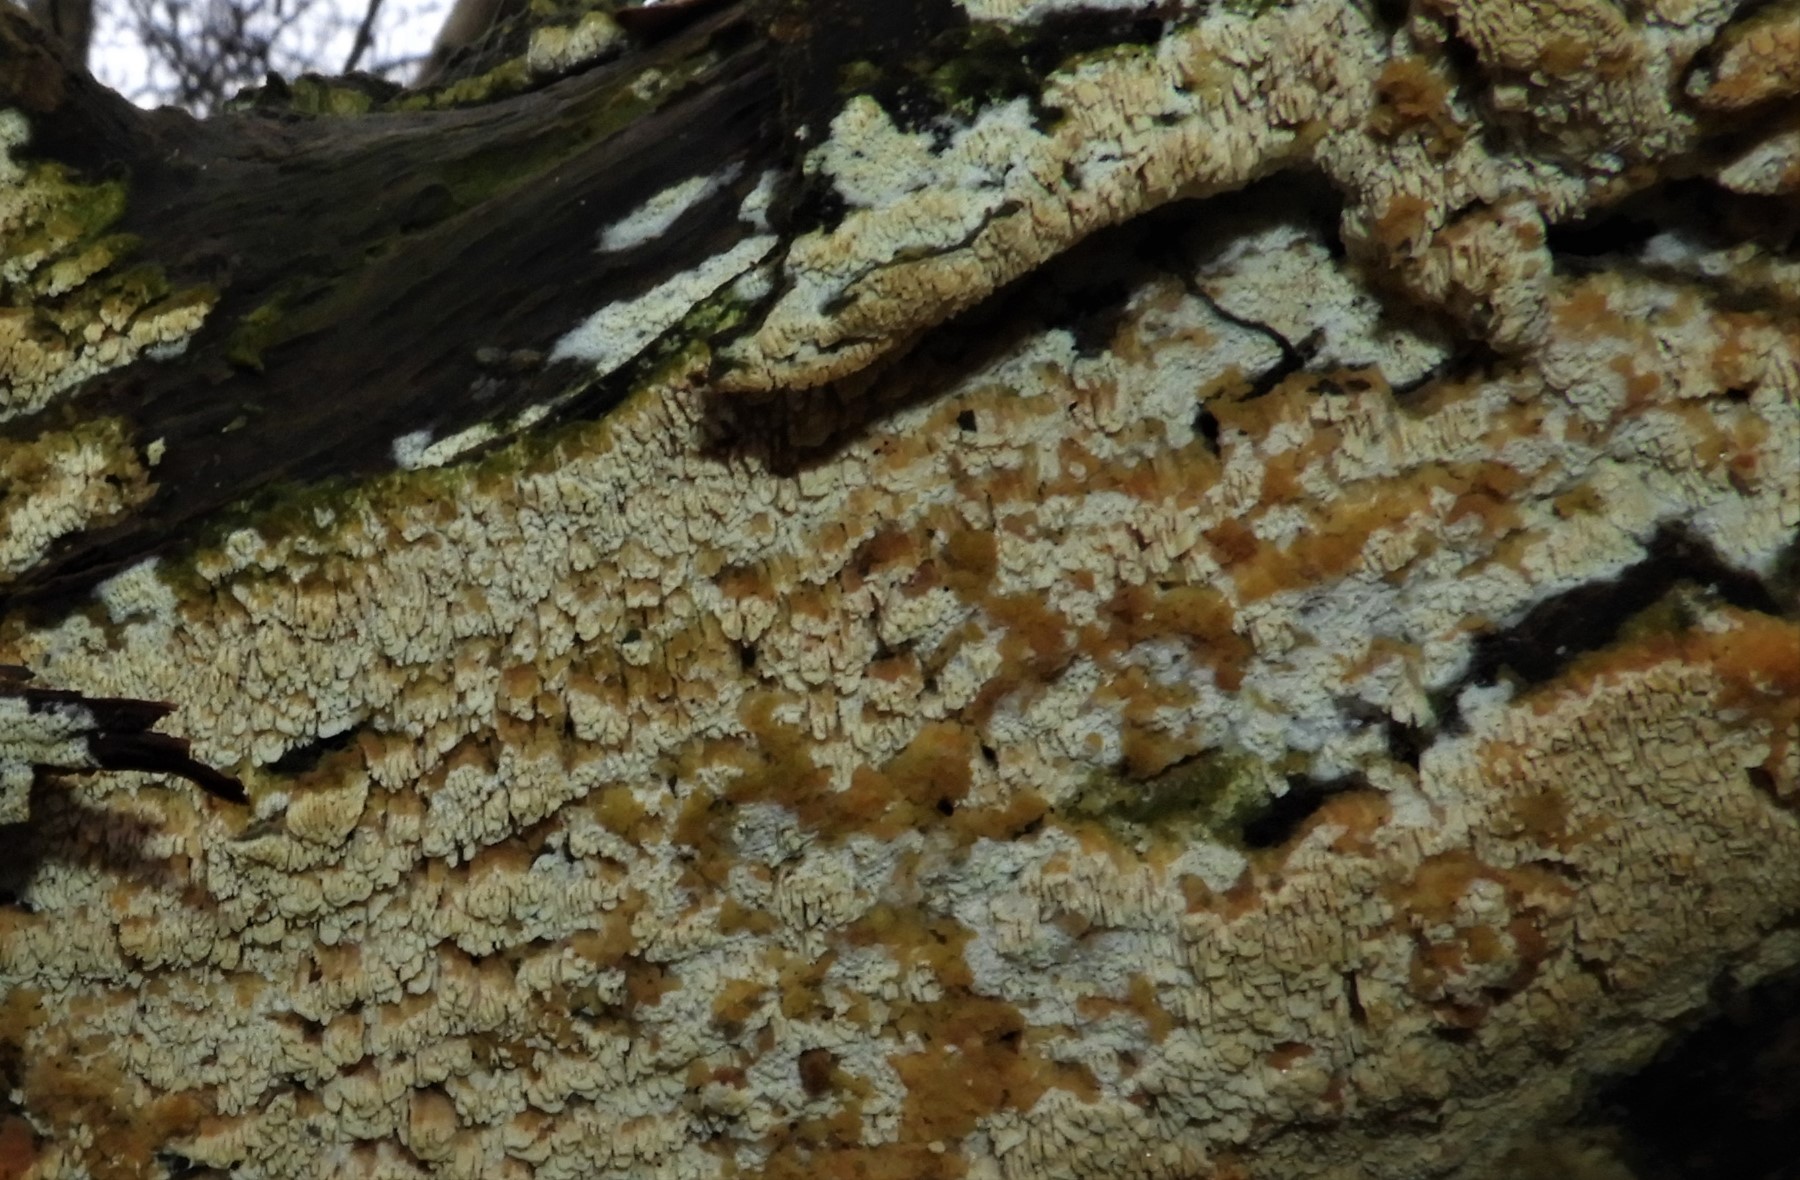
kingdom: Fungi
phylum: Basidiomycota
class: Agaricomycetes
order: Hymenochaetales
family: Schizoporaceae
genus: Schizopora
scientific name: Schizopora paradoxa
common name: hvid tandsvamp
